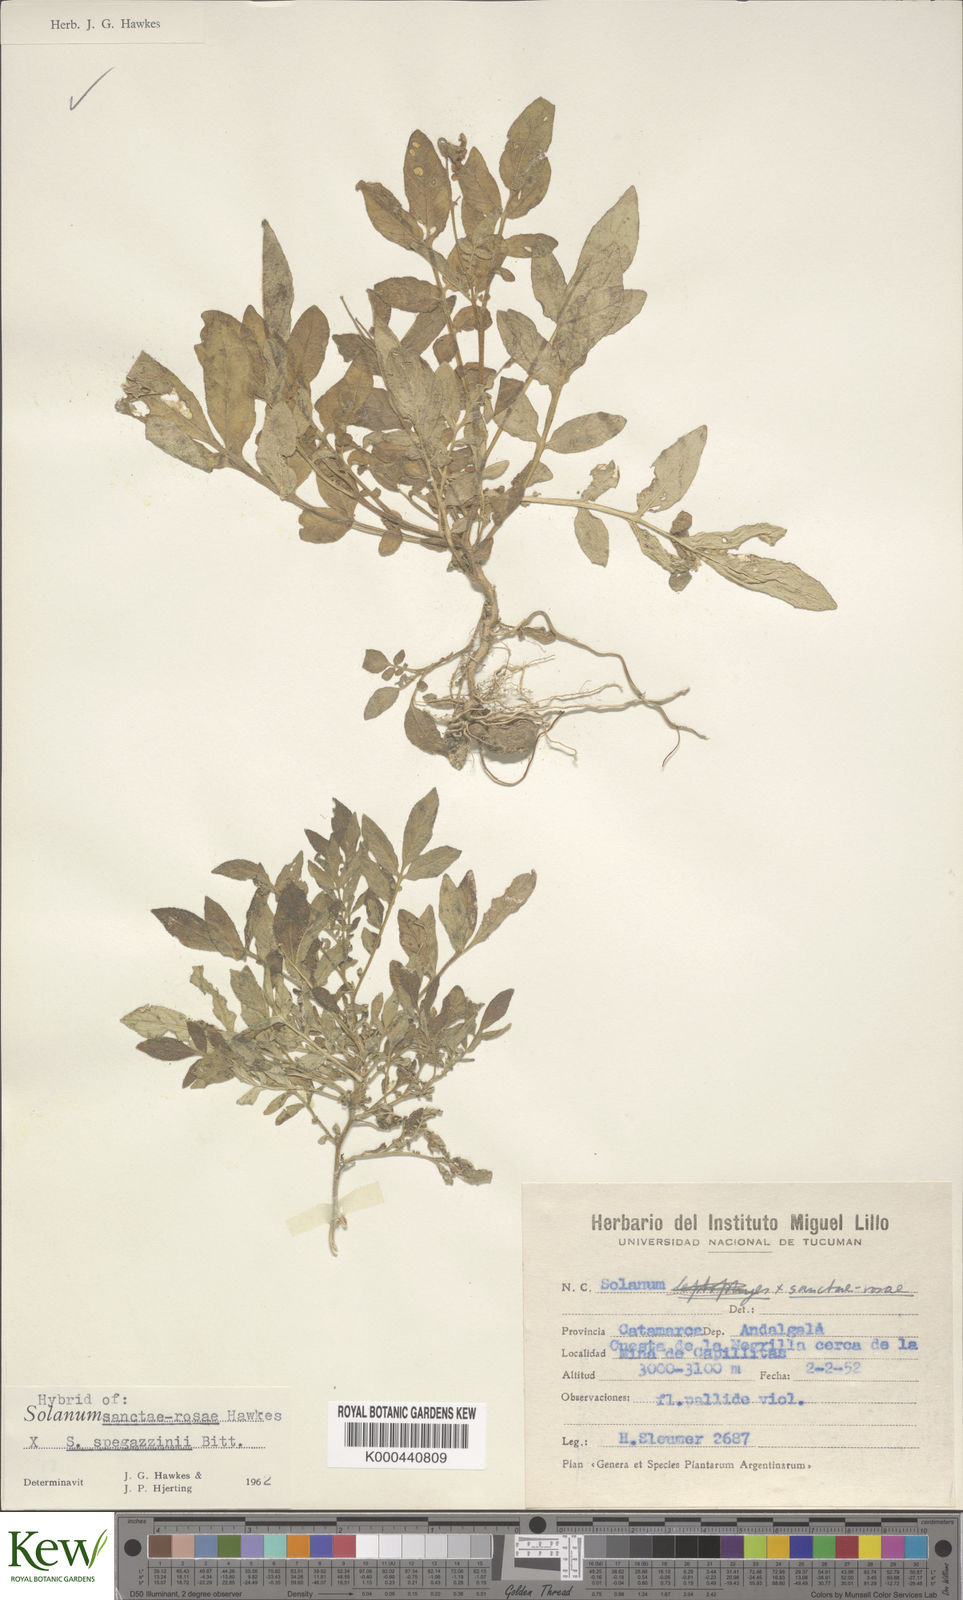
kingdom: Plantae
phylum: Tracheophyta
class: Magnoliopsida
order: Solanales
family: Solanaceae
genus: Solanum
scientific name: Solanum boliviense
